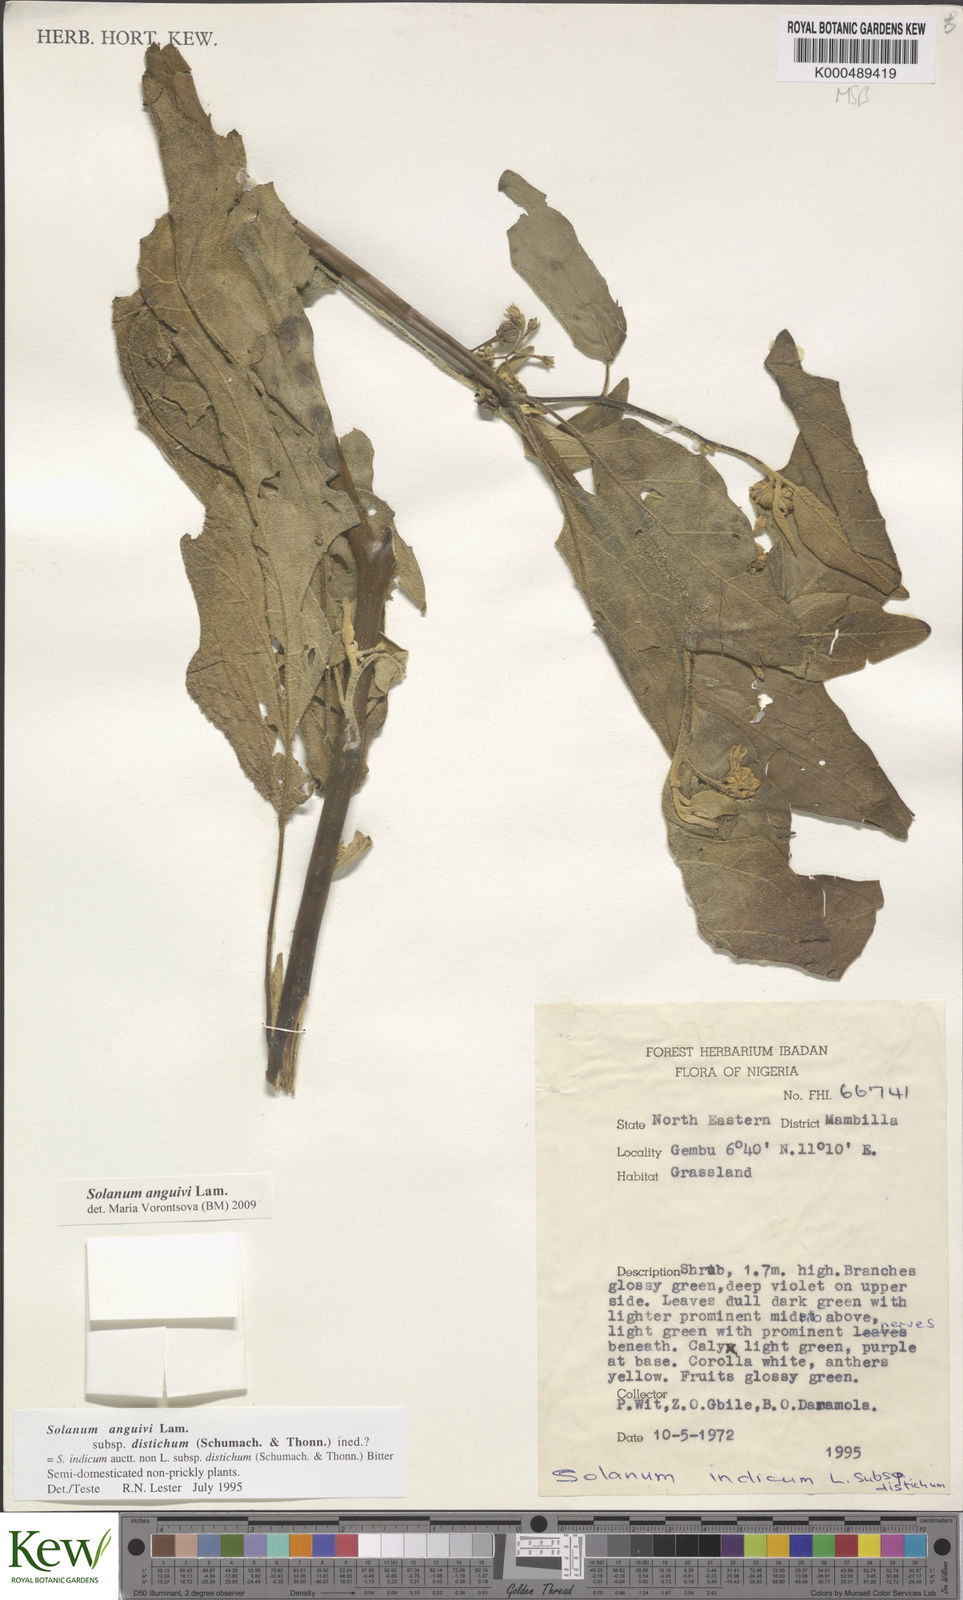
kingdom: Plantae
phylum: Tracheophyta
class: Magnoliopsida
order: Solanales
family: Solanaceae
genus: Solanum
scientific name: Solanum anguivi
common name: Forest bitterberry
